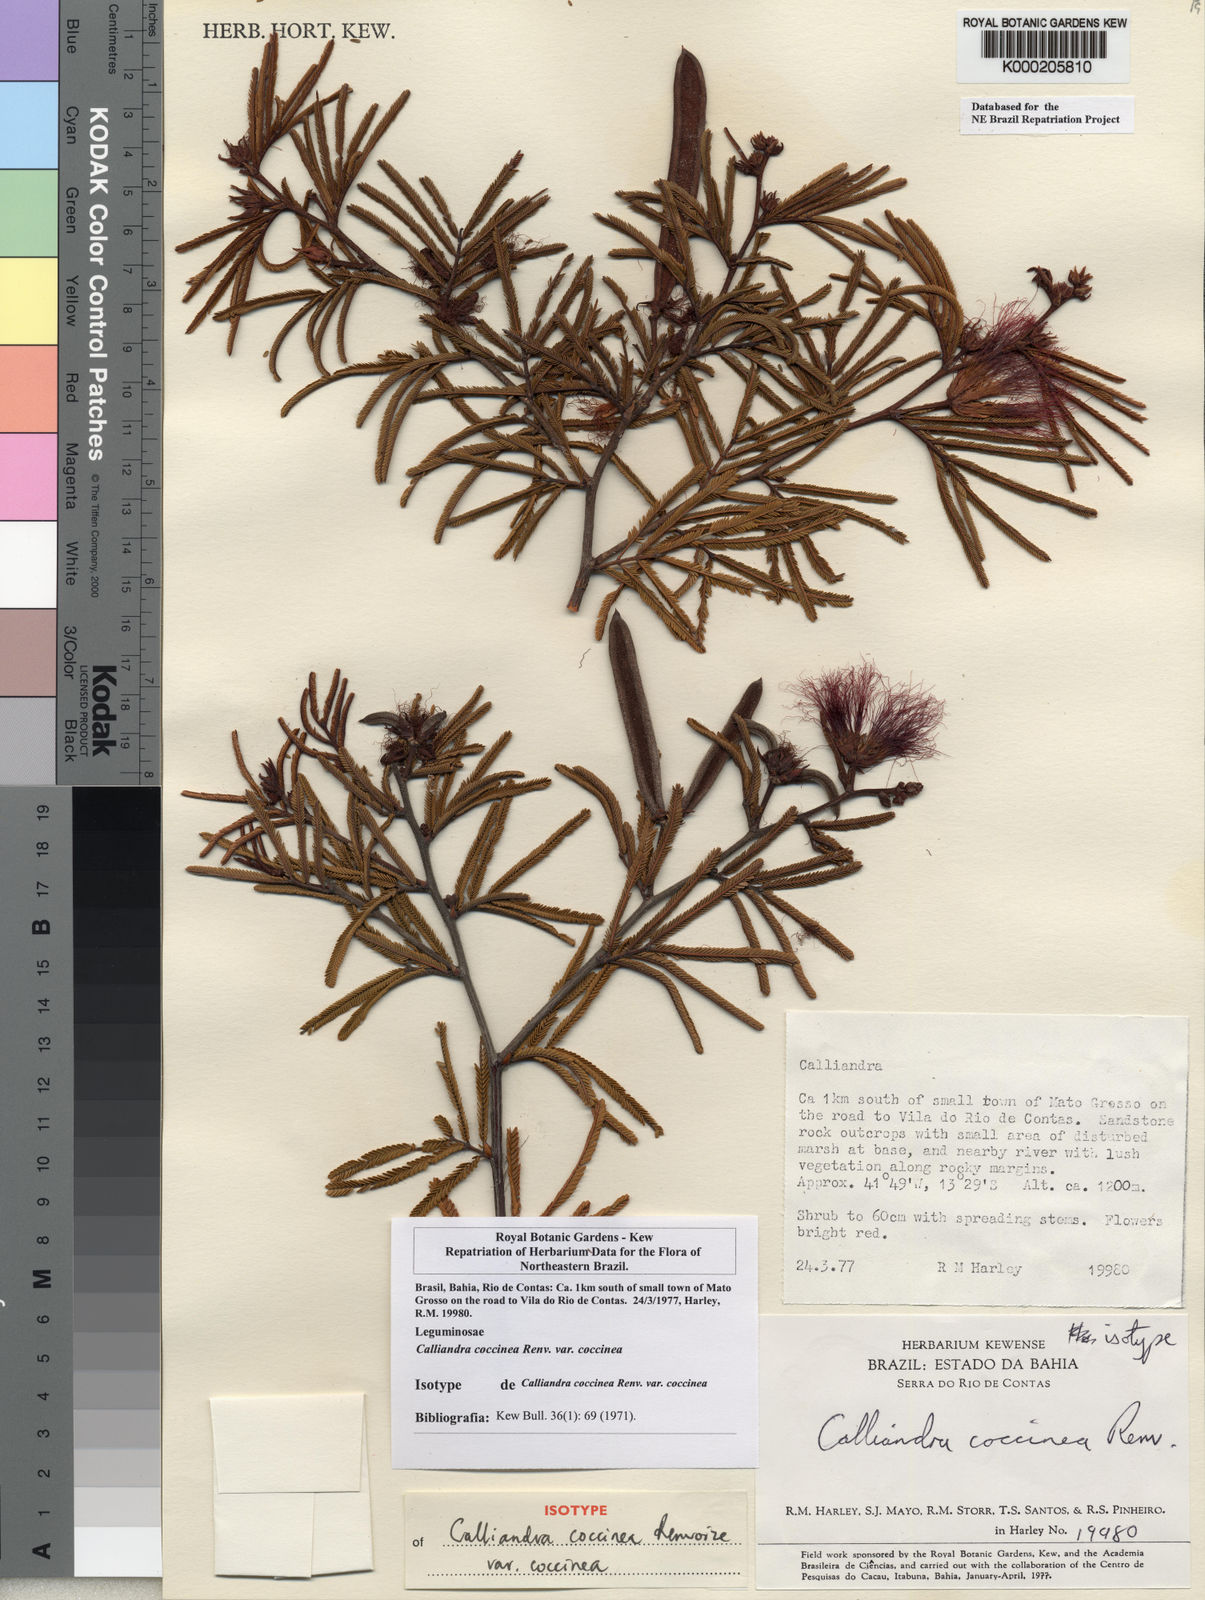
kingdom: Plantae
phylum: Tracheophyta
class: Magnoliopsida
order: Fabales
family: Fabaceae
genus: Calliandra
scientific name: Calliandra coccinea
